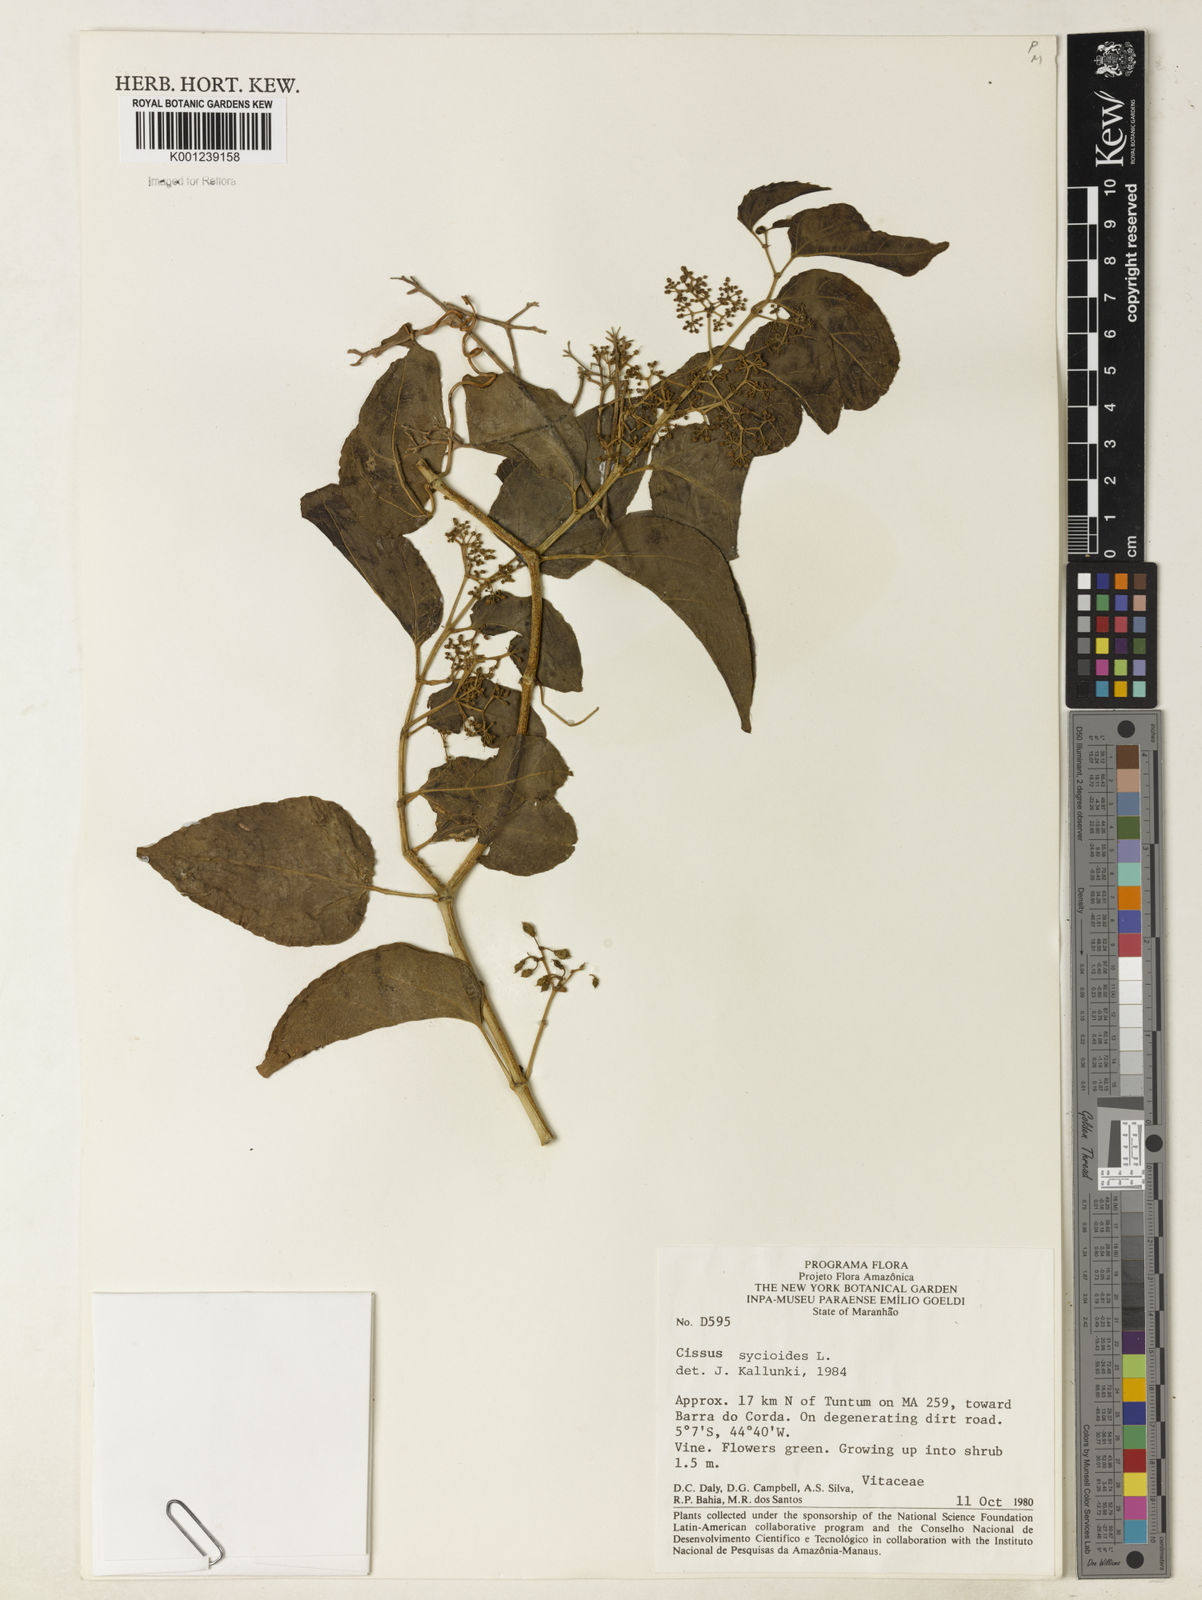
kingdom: Plantae
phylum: Tracheophyta
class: Magnoliopsida
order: Vitales
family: Vitaceae
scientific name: Vitaceae
